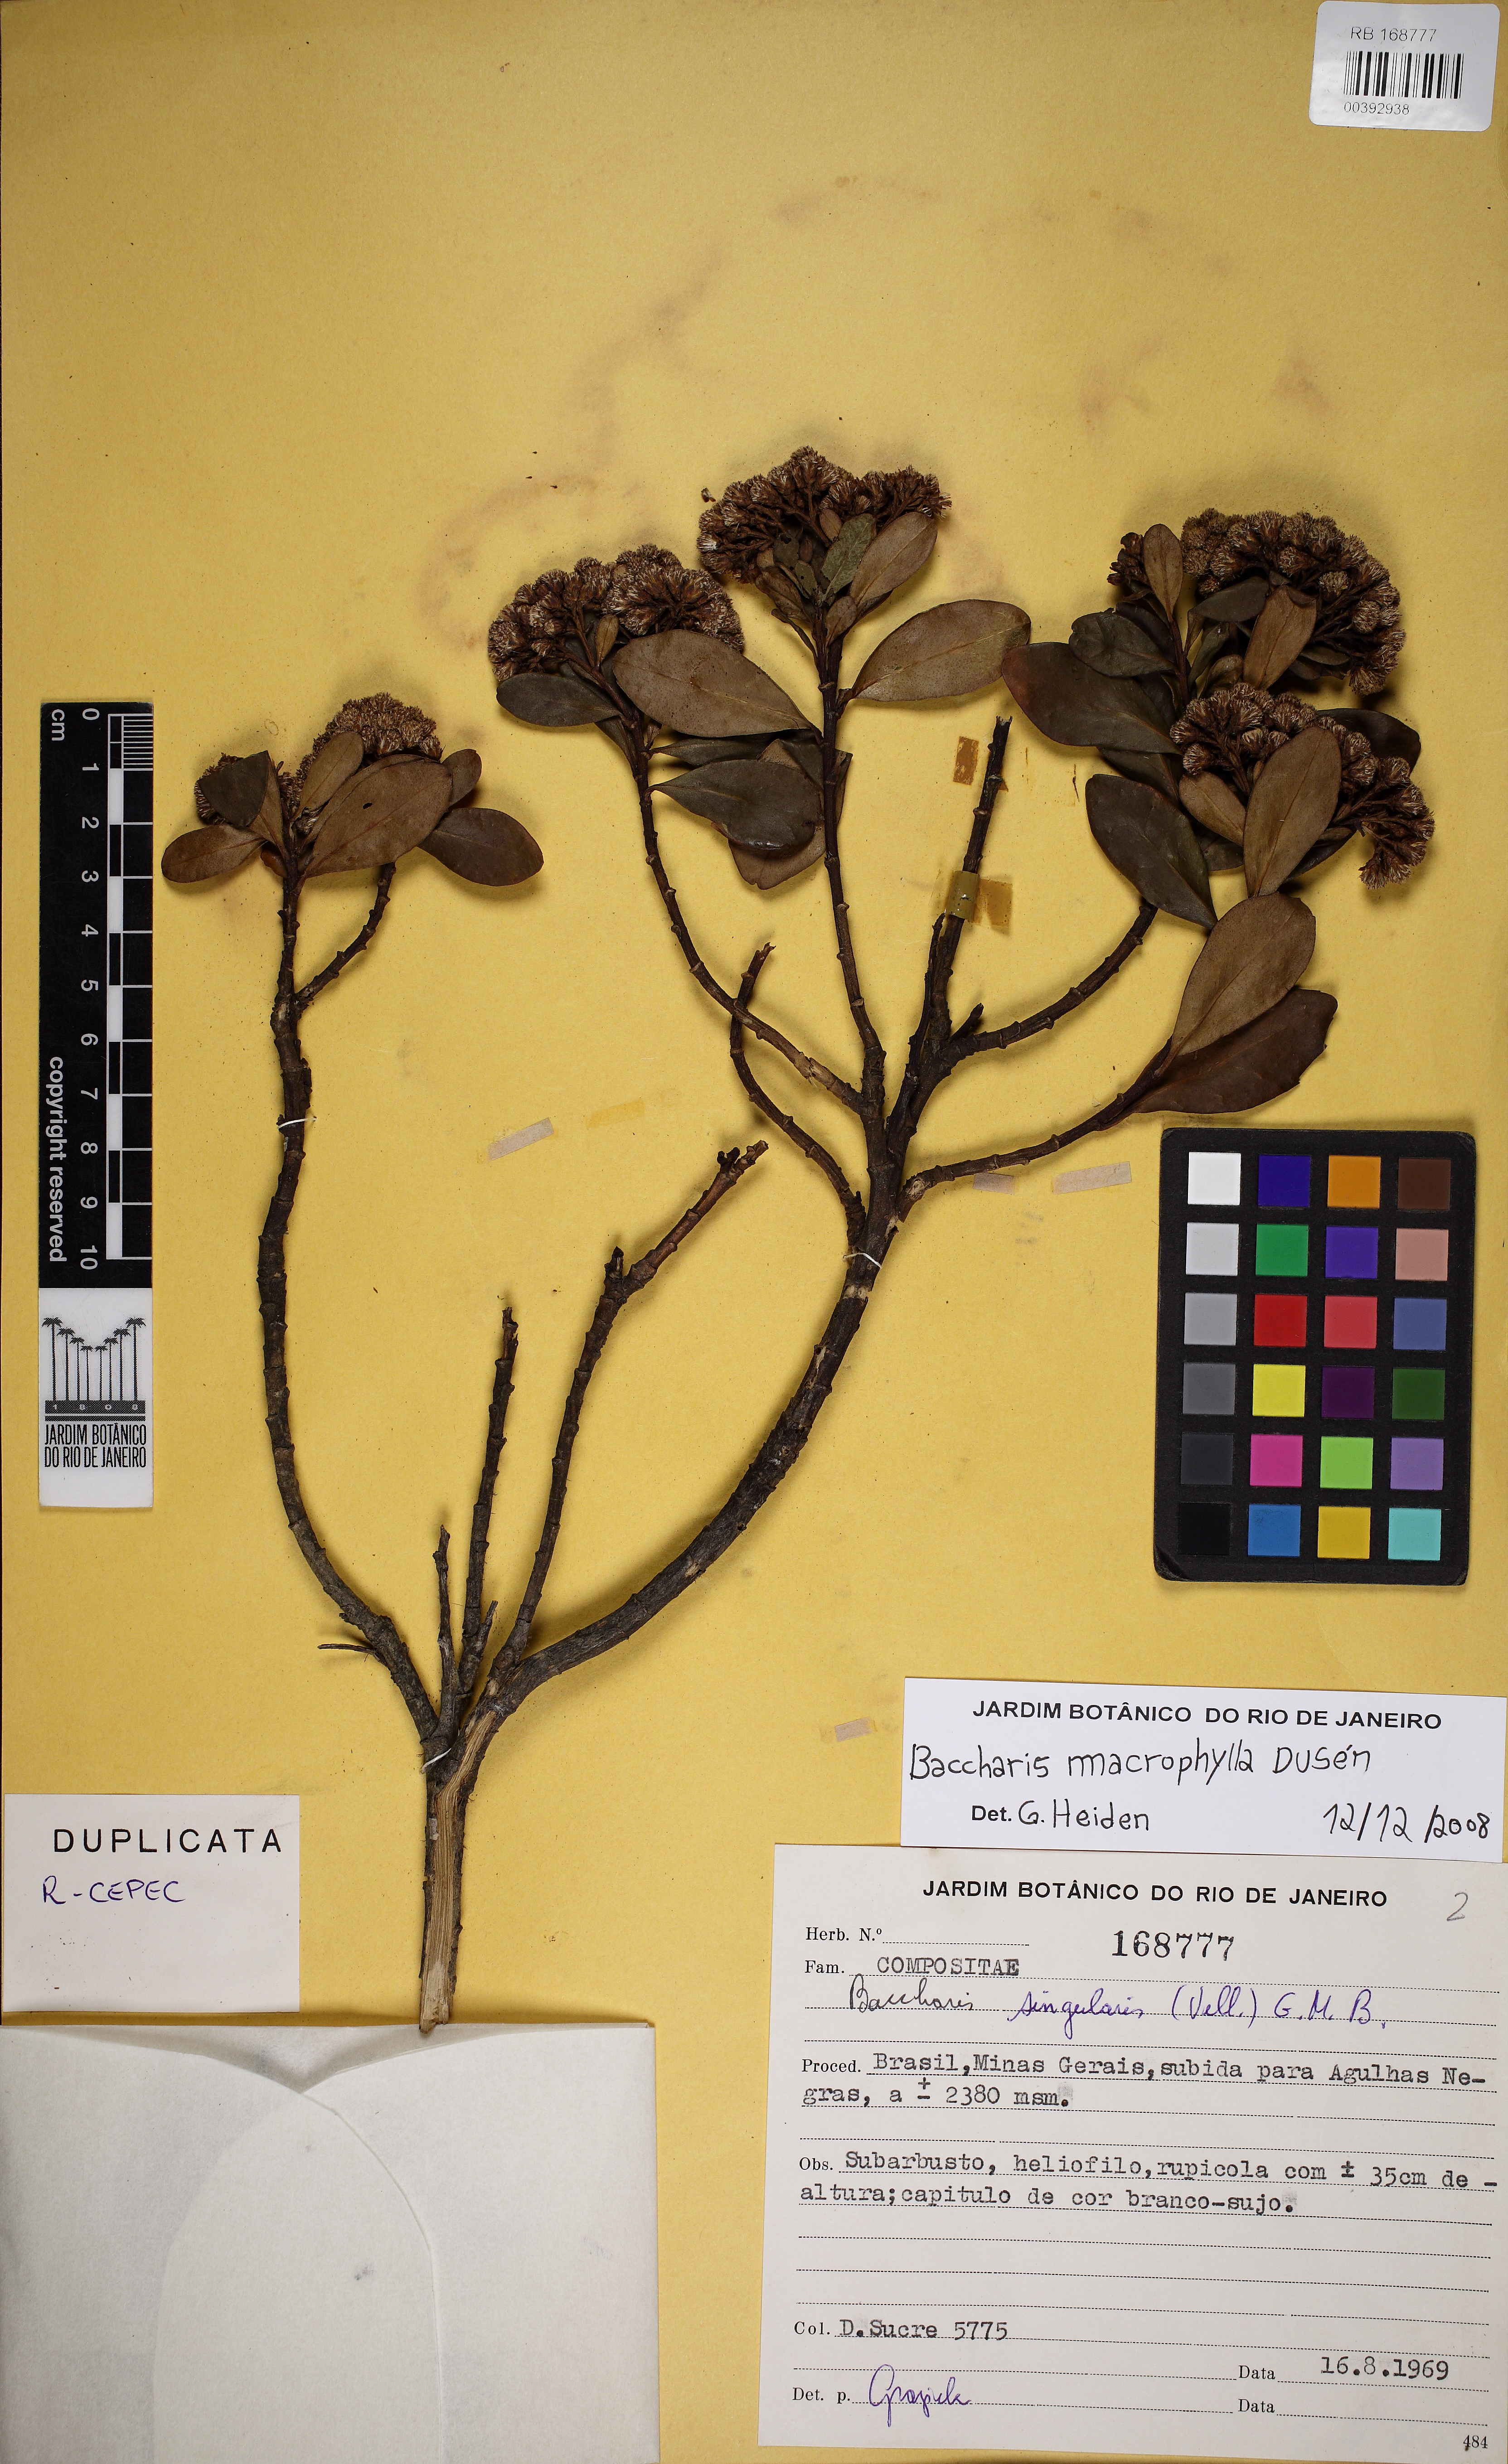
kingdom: Plantae
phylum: Tracheophyta
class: Magnoliopsida
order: Asterales
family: Asteraceae
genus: Pseudobaccharis
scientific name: Pseudobaccharis macrophylla
